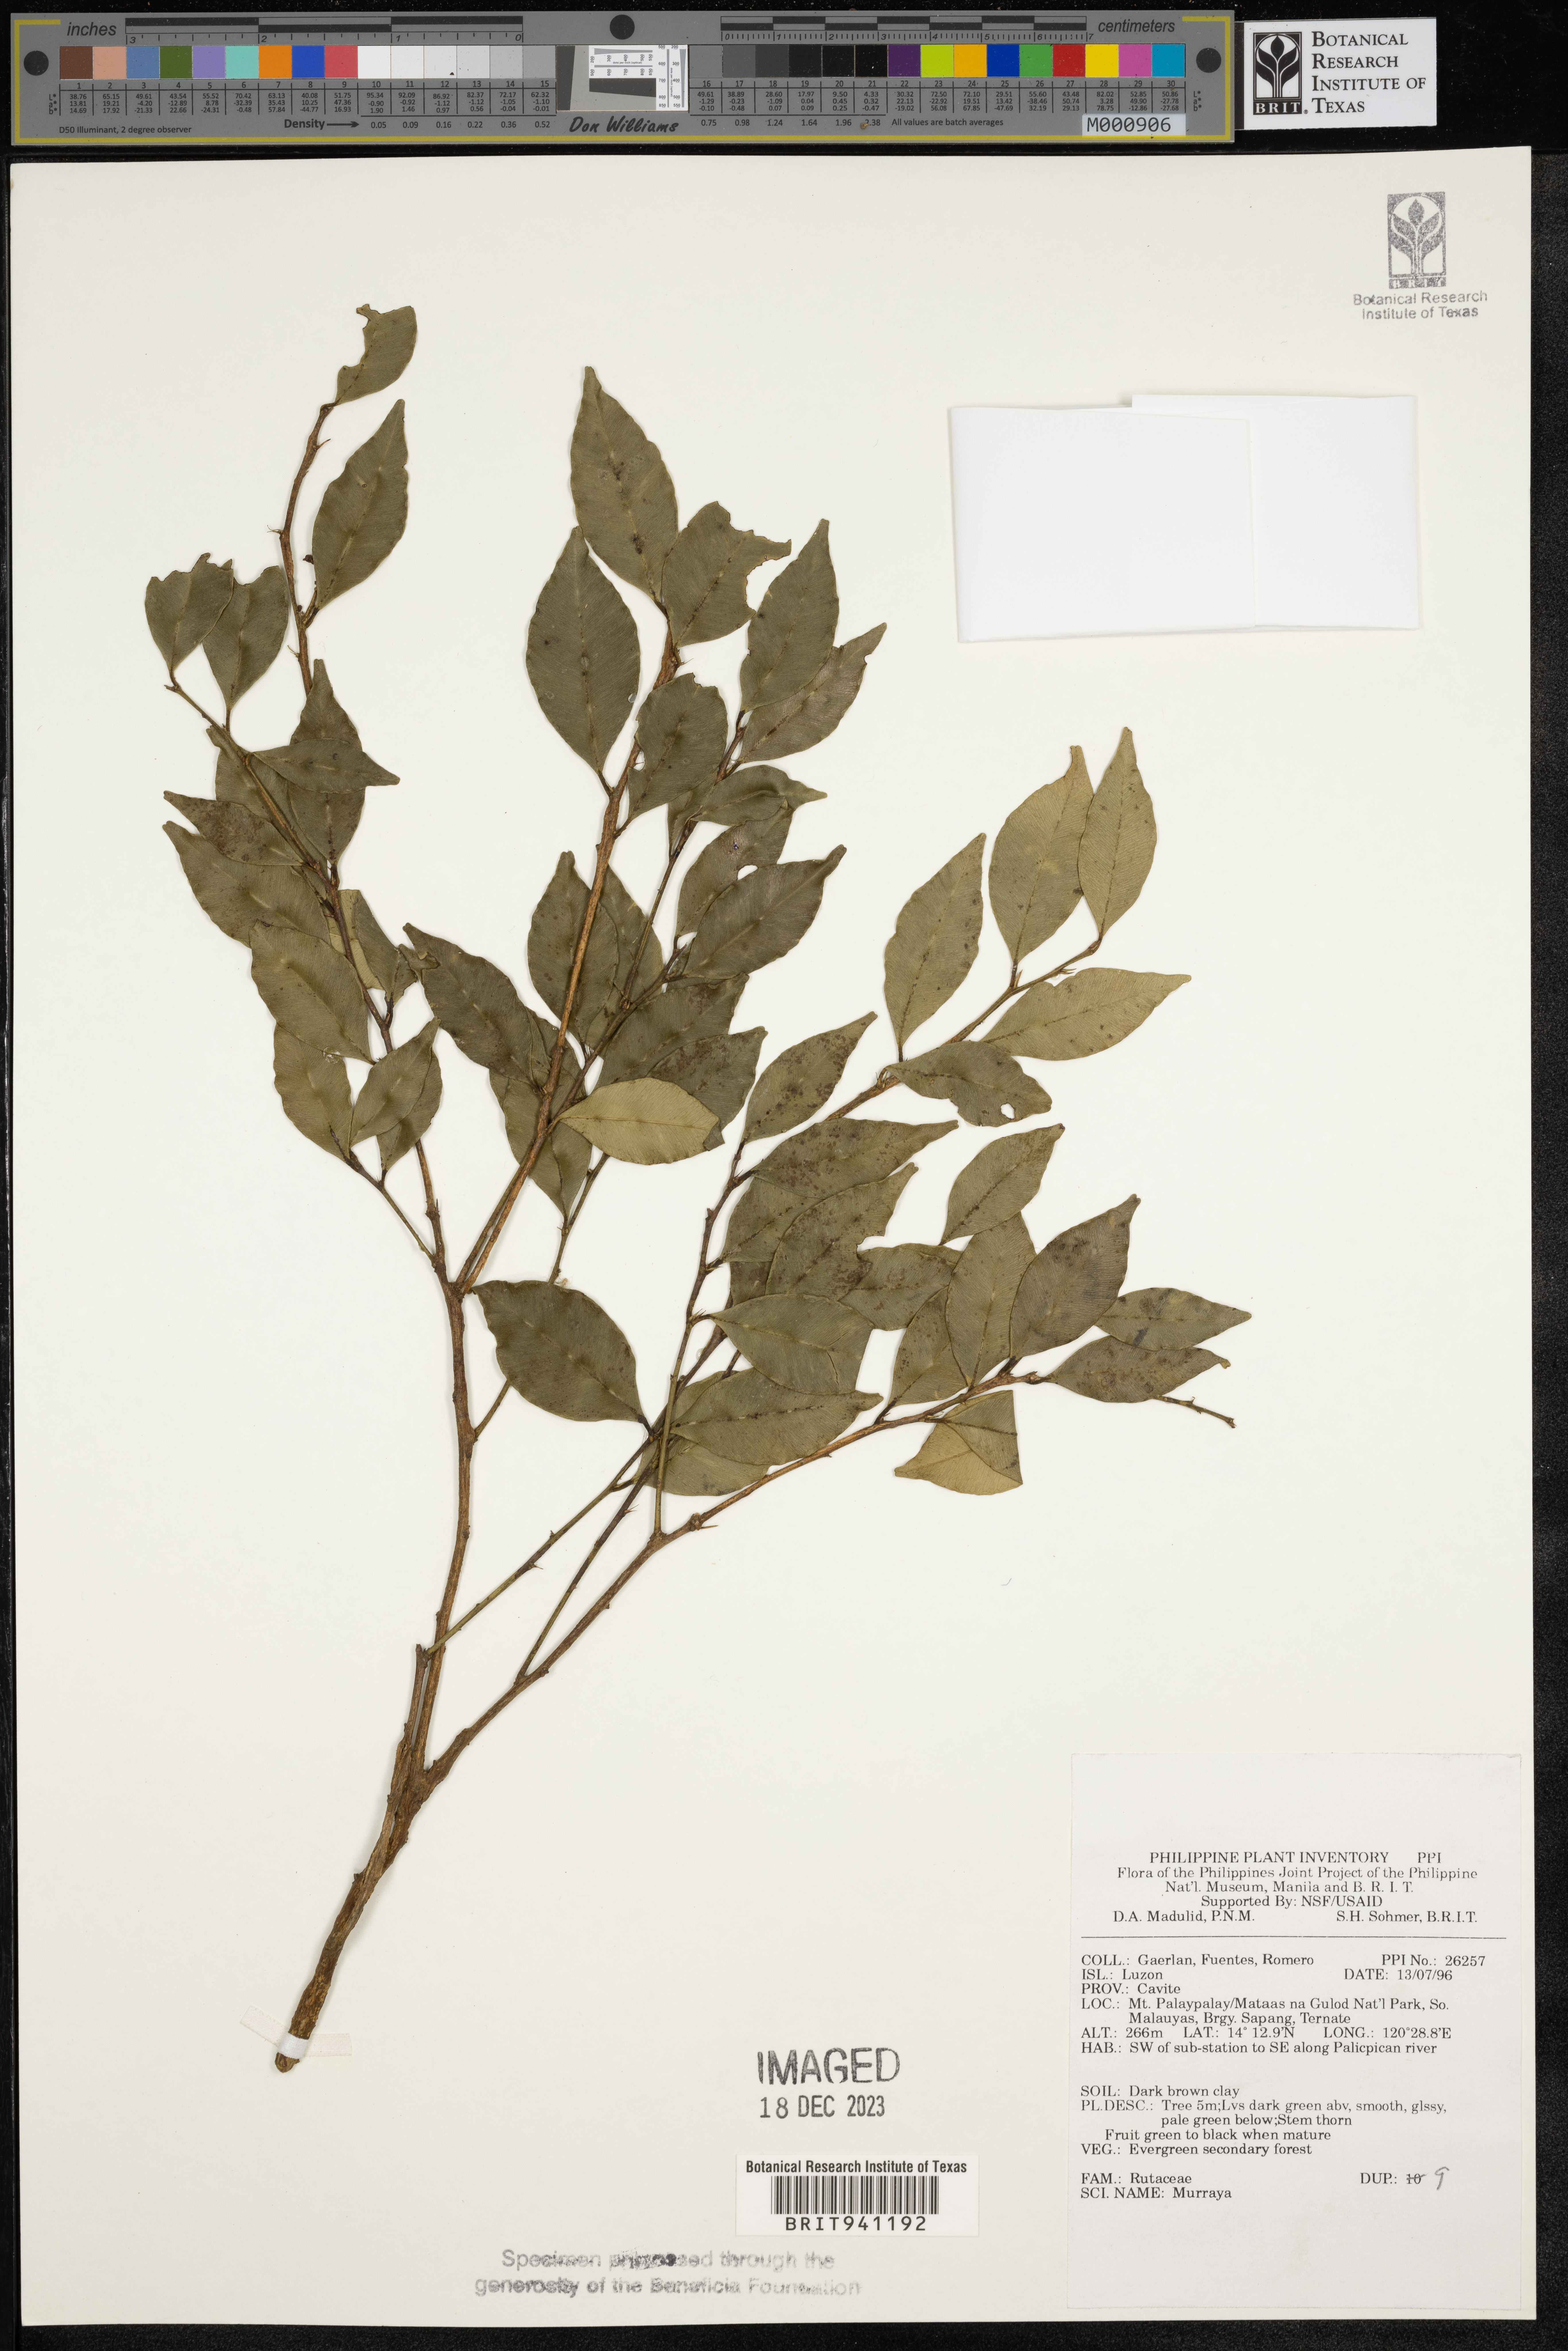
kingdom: Plantae
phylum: Tracheophyta
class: Magnoliopsida
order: Sapindales
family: Rutaceae
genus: Murraya
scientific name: Murraya
